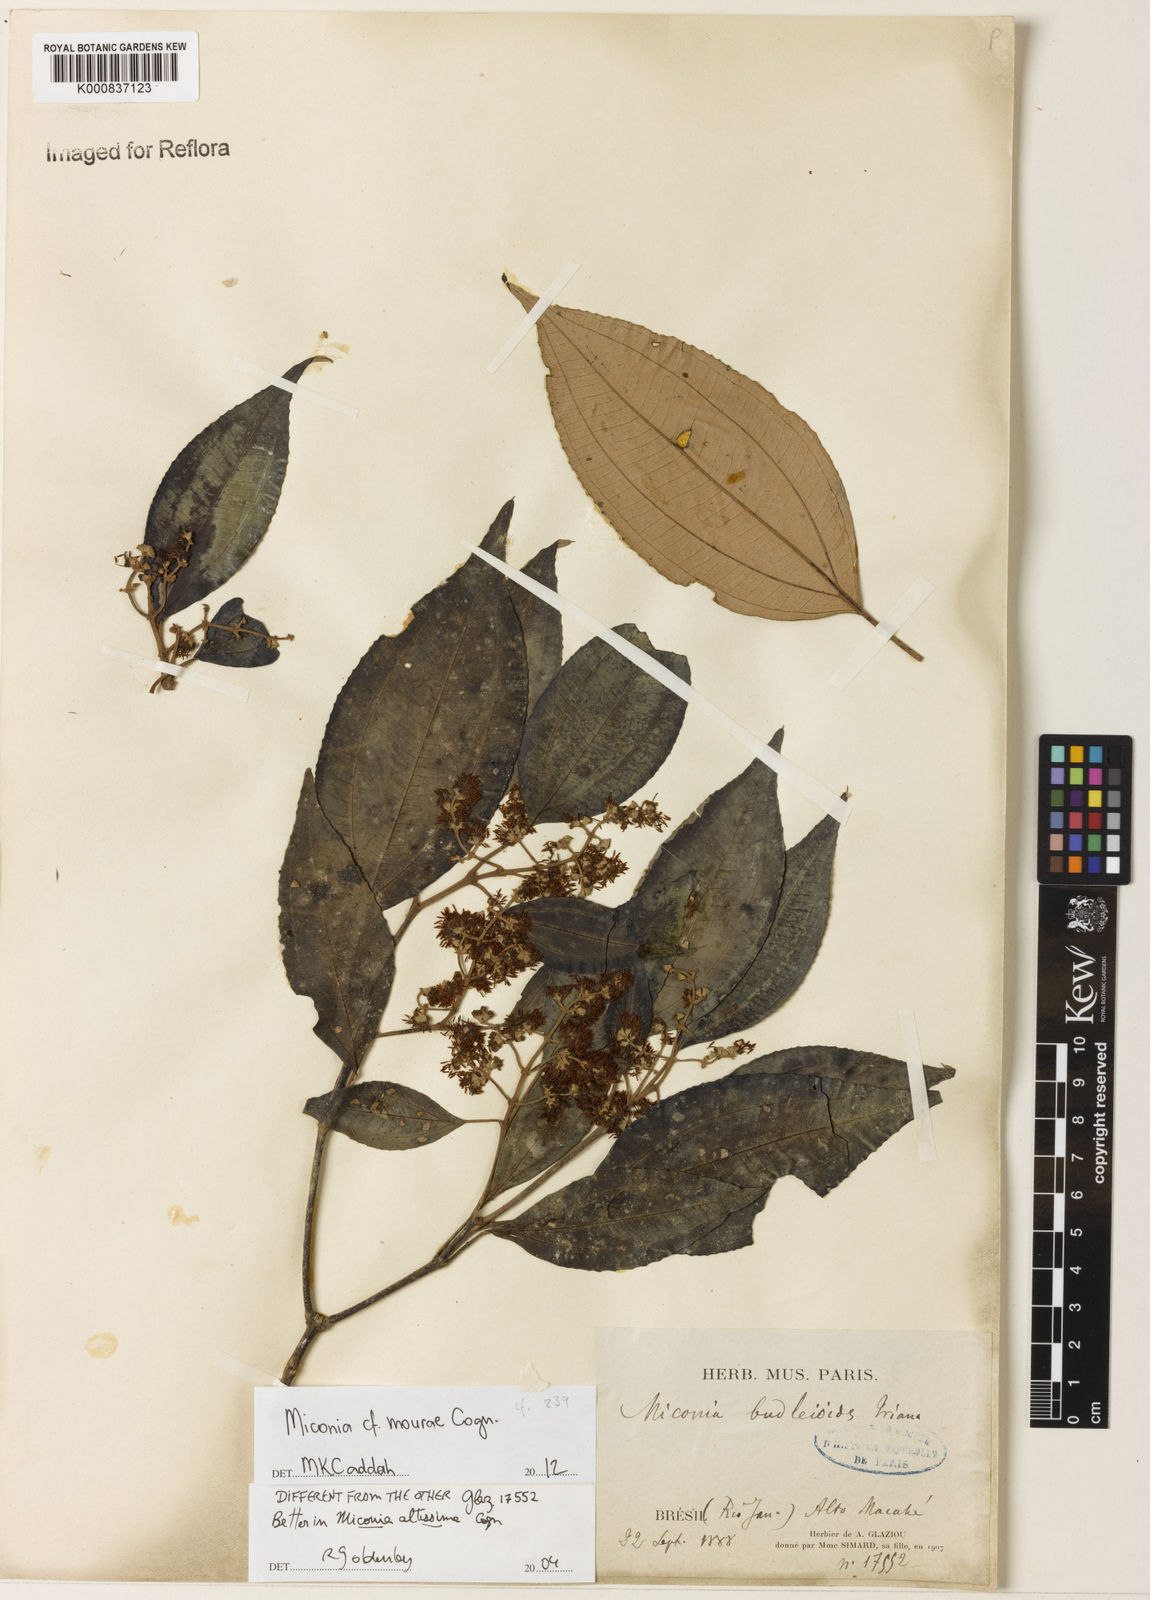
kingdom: Plantae
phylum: Tracheophyta
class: Magnoliopsida
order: Myrtales
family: Melastomataceae
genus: Miconia
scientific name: Miconia formosa
